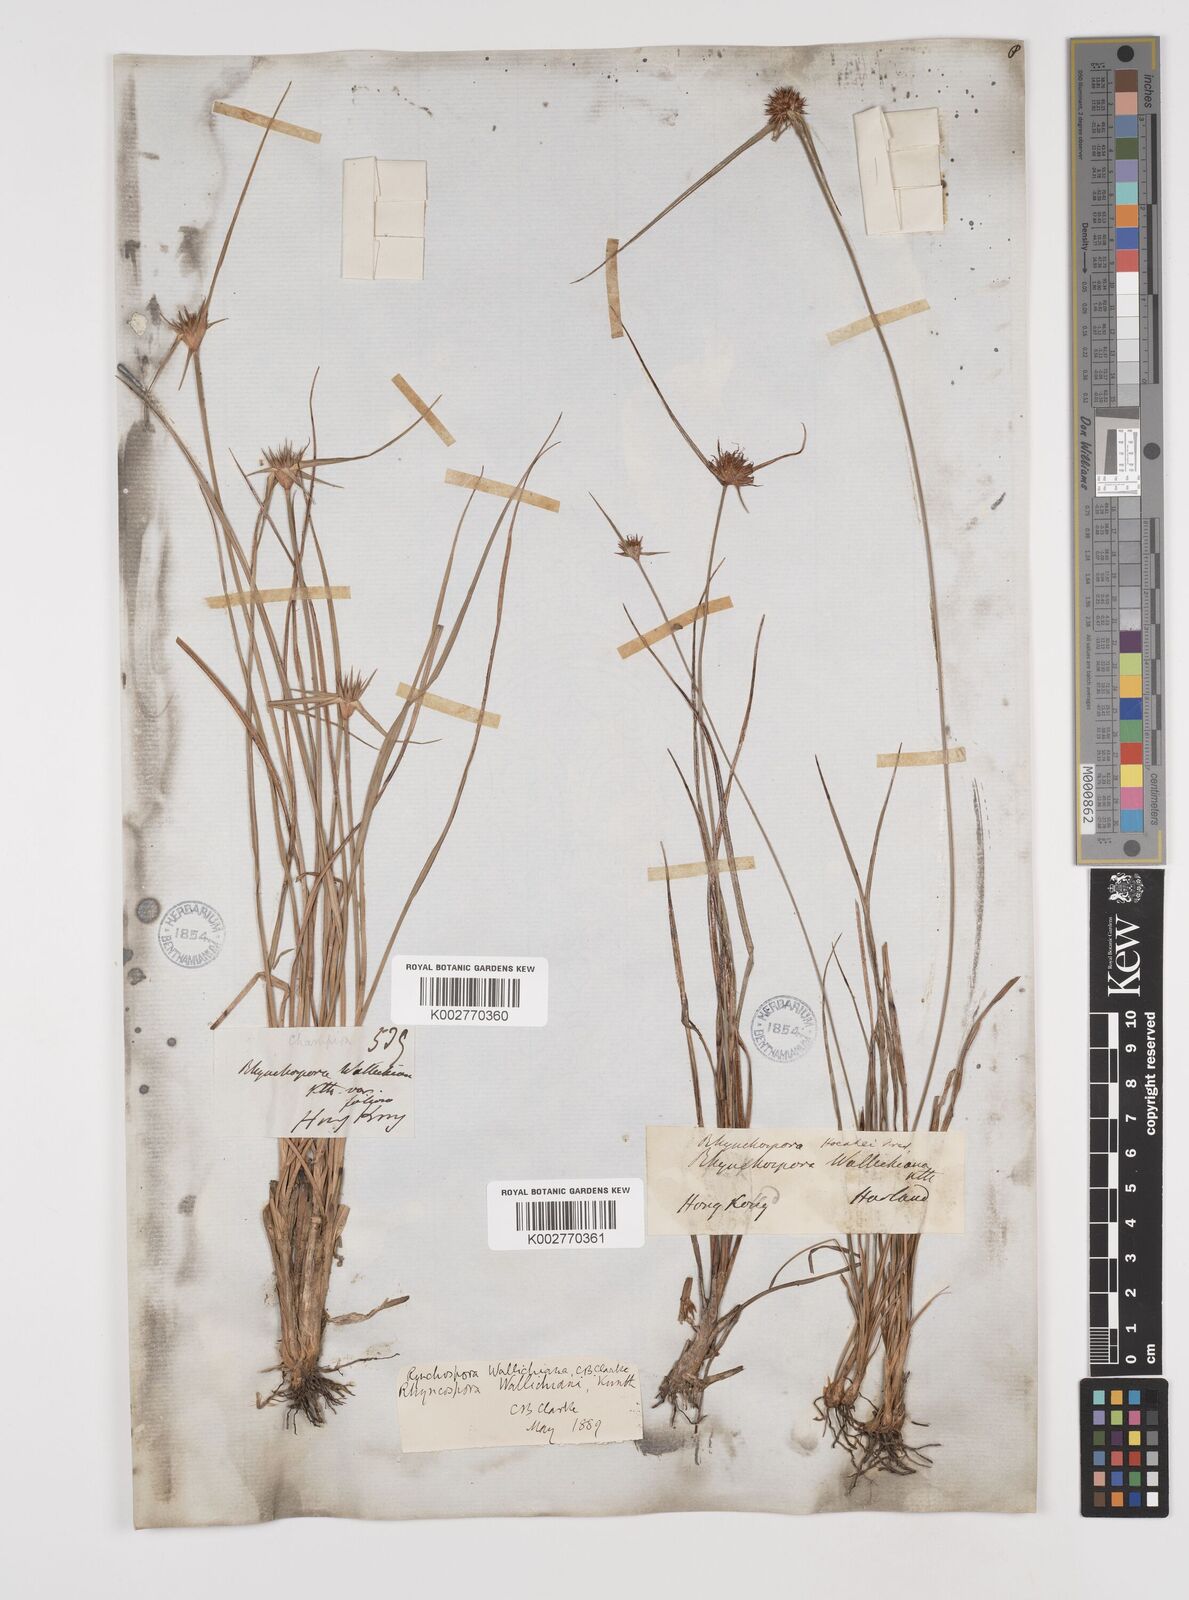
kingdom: Plantae
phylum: Tracheophyta
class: Liliopsida
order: Poales
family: Cyperaceae
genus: Rhynchospora
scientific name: Rhynchospora rubra
